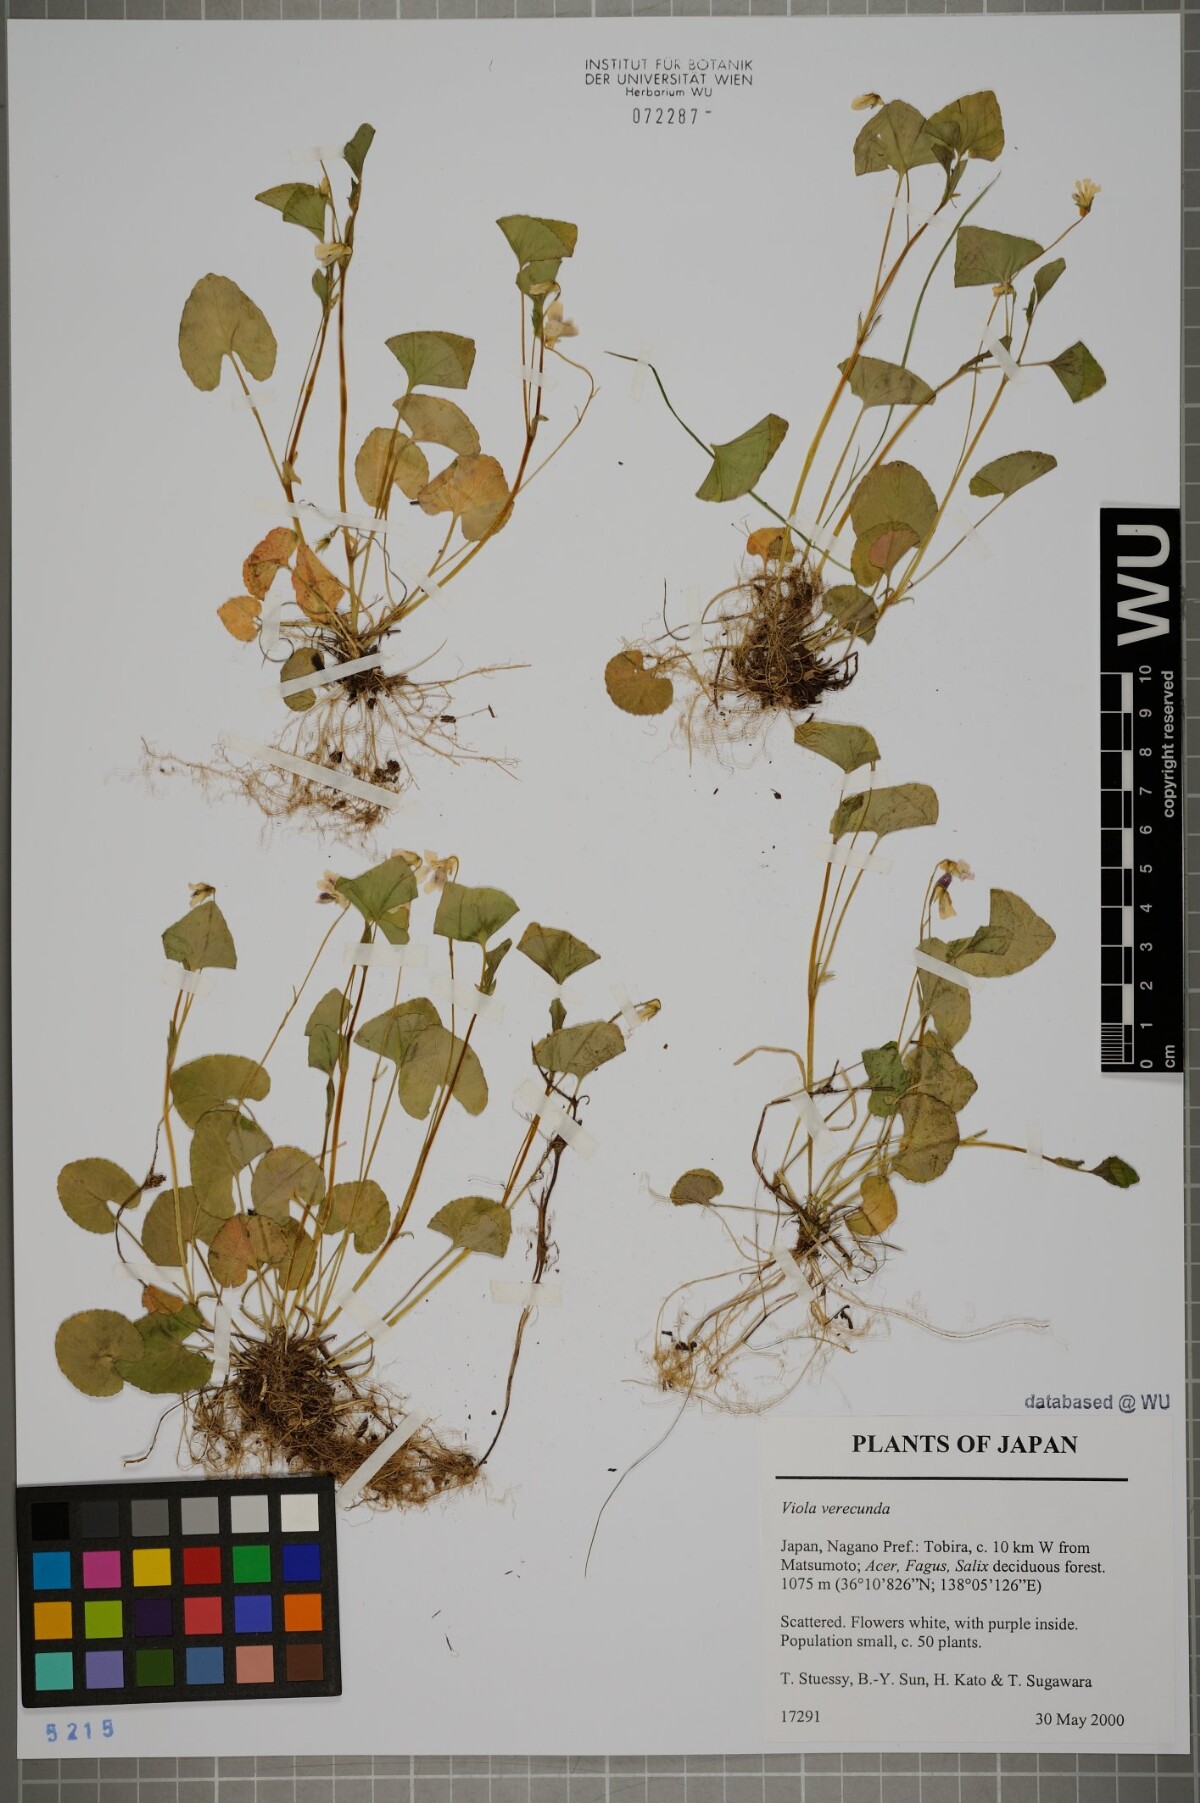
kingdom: Plantae
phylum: Tracheophyta
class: Magnoliopsida
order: Malpighiales
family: Violaceae
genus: Viola
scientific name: Viola hamiltoniana
